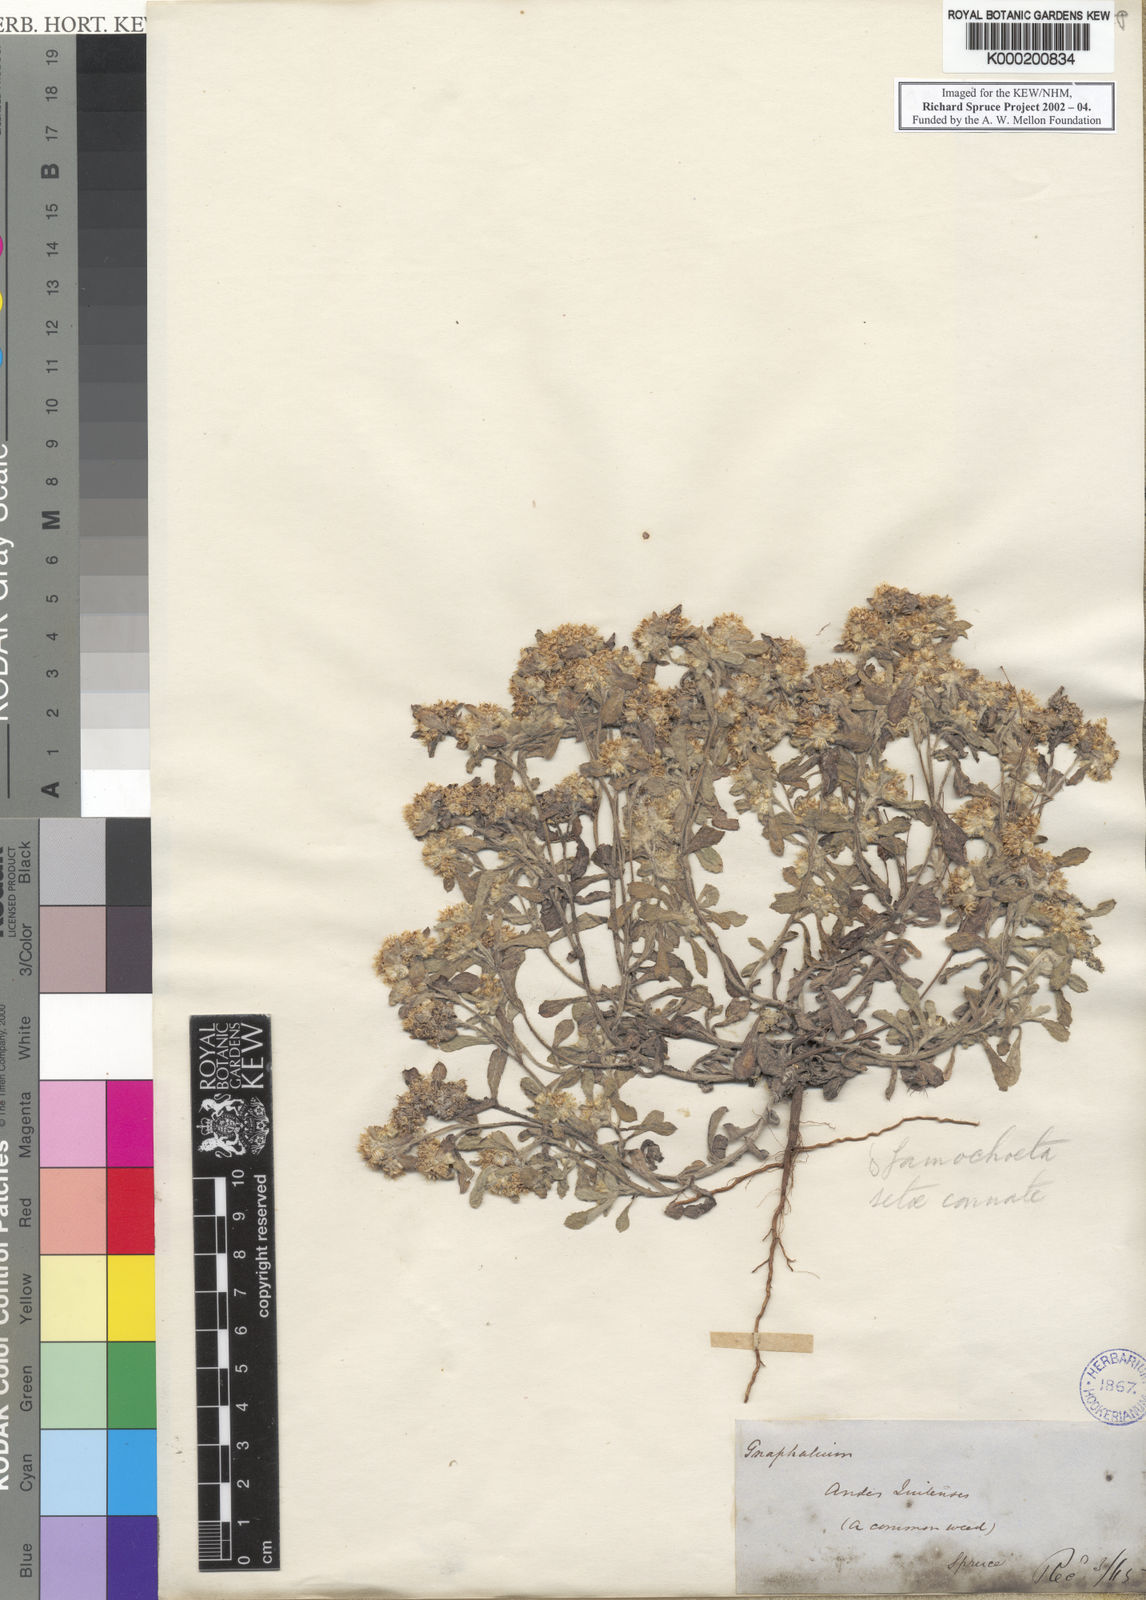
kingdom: Plantae
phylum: Tracheophyta
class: Magnoliopsida
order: Asterales
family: Asteraceae
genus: Gnaphalium
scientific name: Gnaphalium
